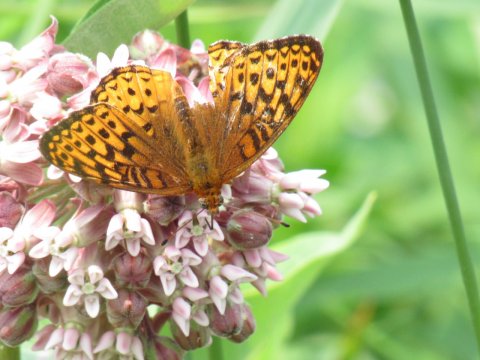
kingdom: Animalia
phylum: Arthropoda
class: Insecta
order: Lepidoptera
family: Nymphalidae
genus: Speyeria
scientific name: Speyeria atlantis
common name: Atlantis Fritillary
